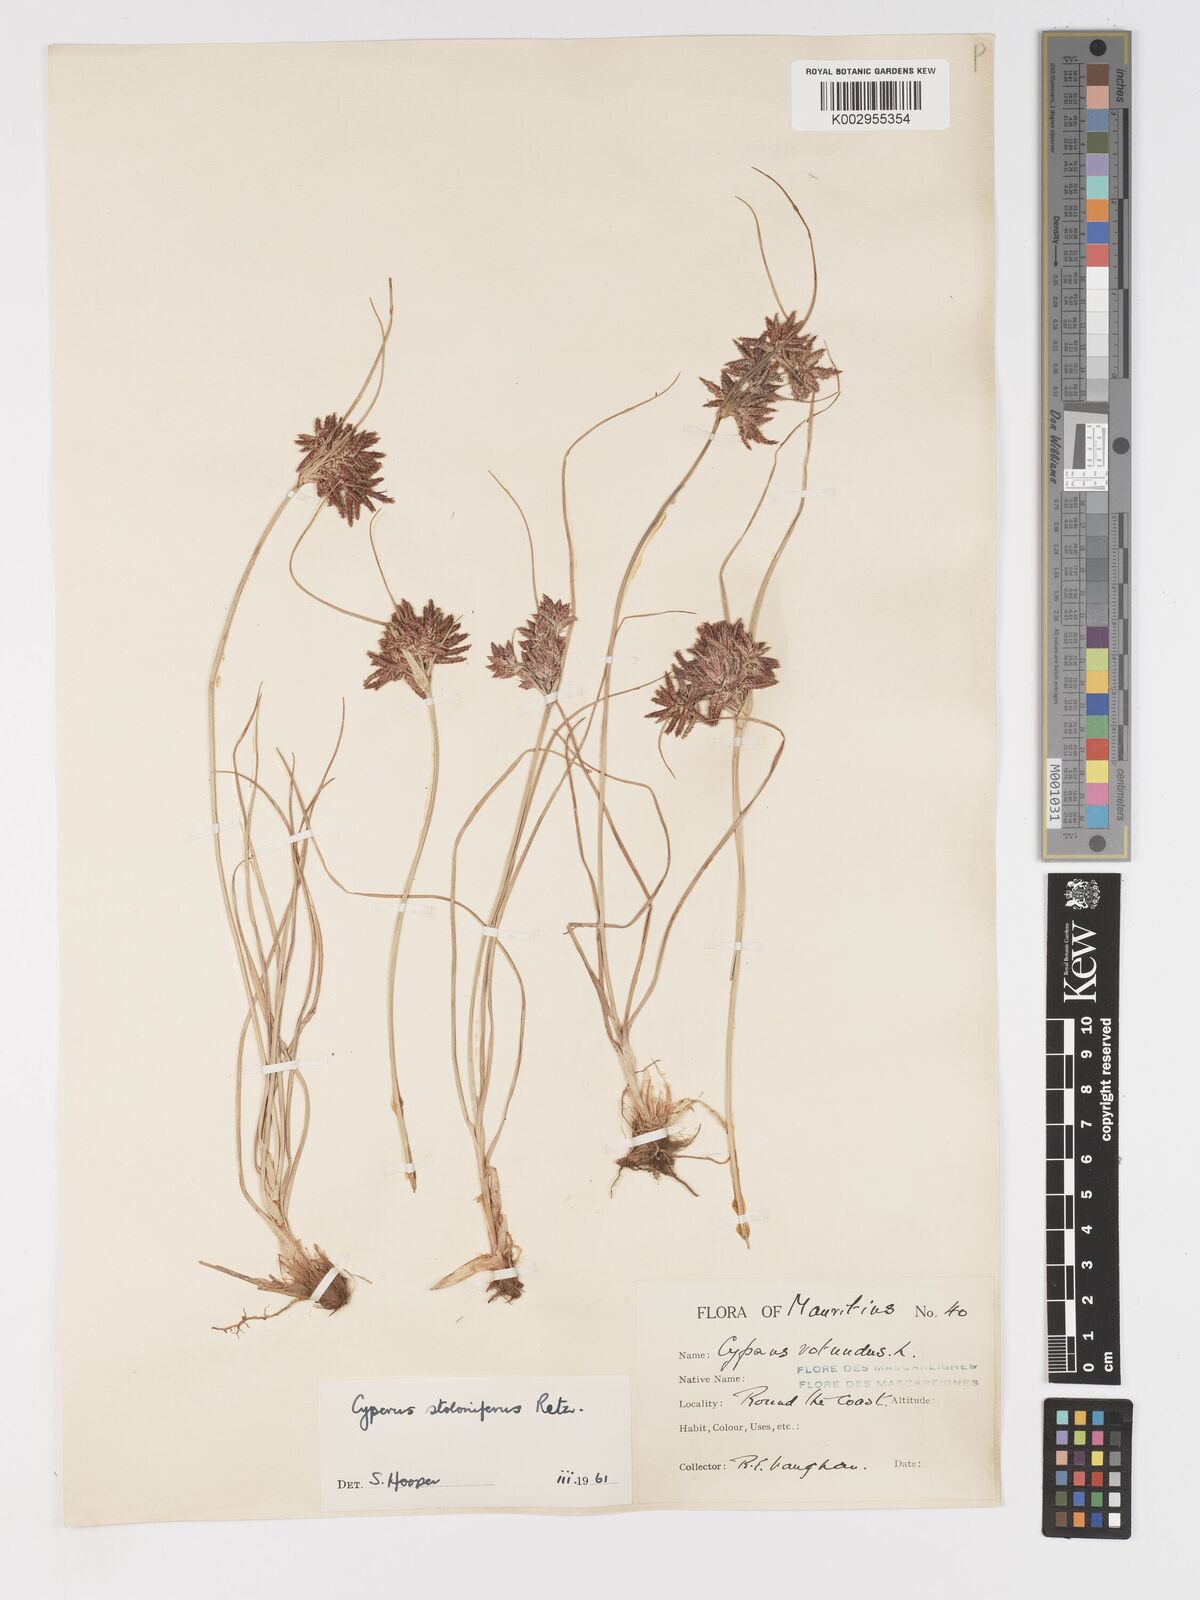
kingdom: Plantae
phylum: Tracheophyta
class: Liliopsida
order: Poales
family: Cyperaceae
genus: Cyperus
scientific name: Cyperus bulbosus
